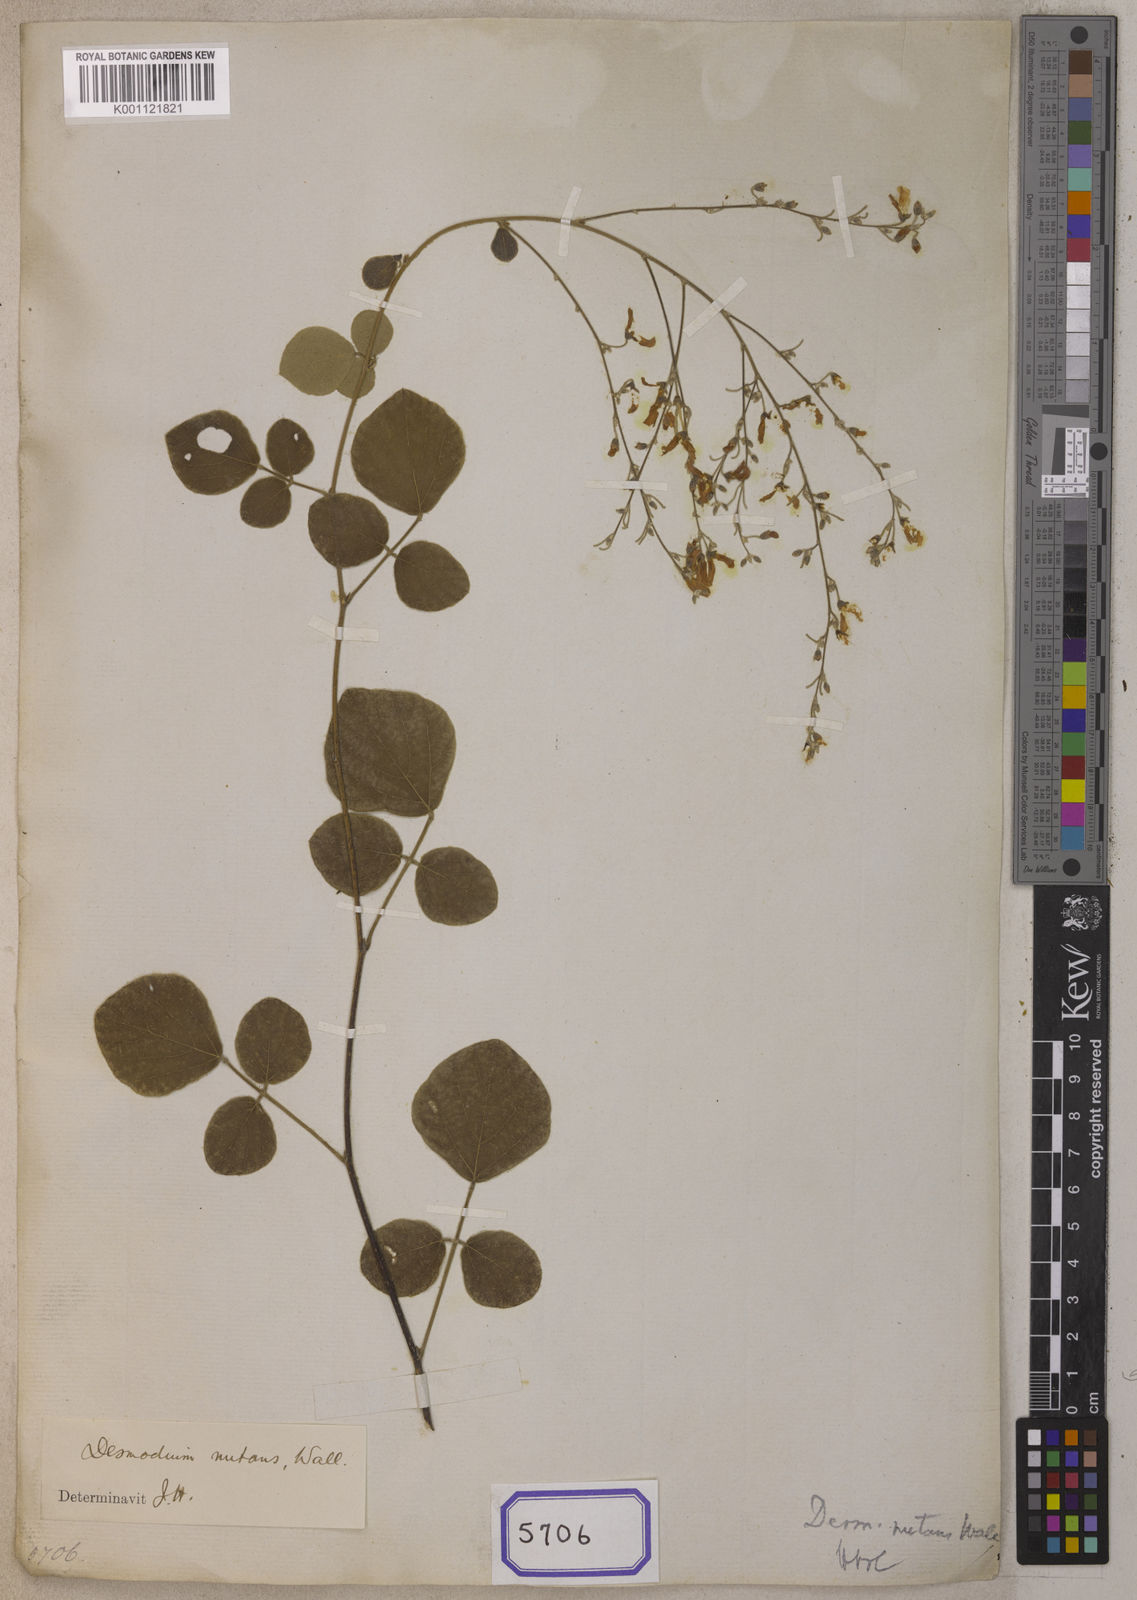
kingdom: Plantae
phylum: Tracheophyta
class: Magnoliopsida
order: Fabales
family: Fabaceae
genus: Desmodium
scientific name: Desmodium
